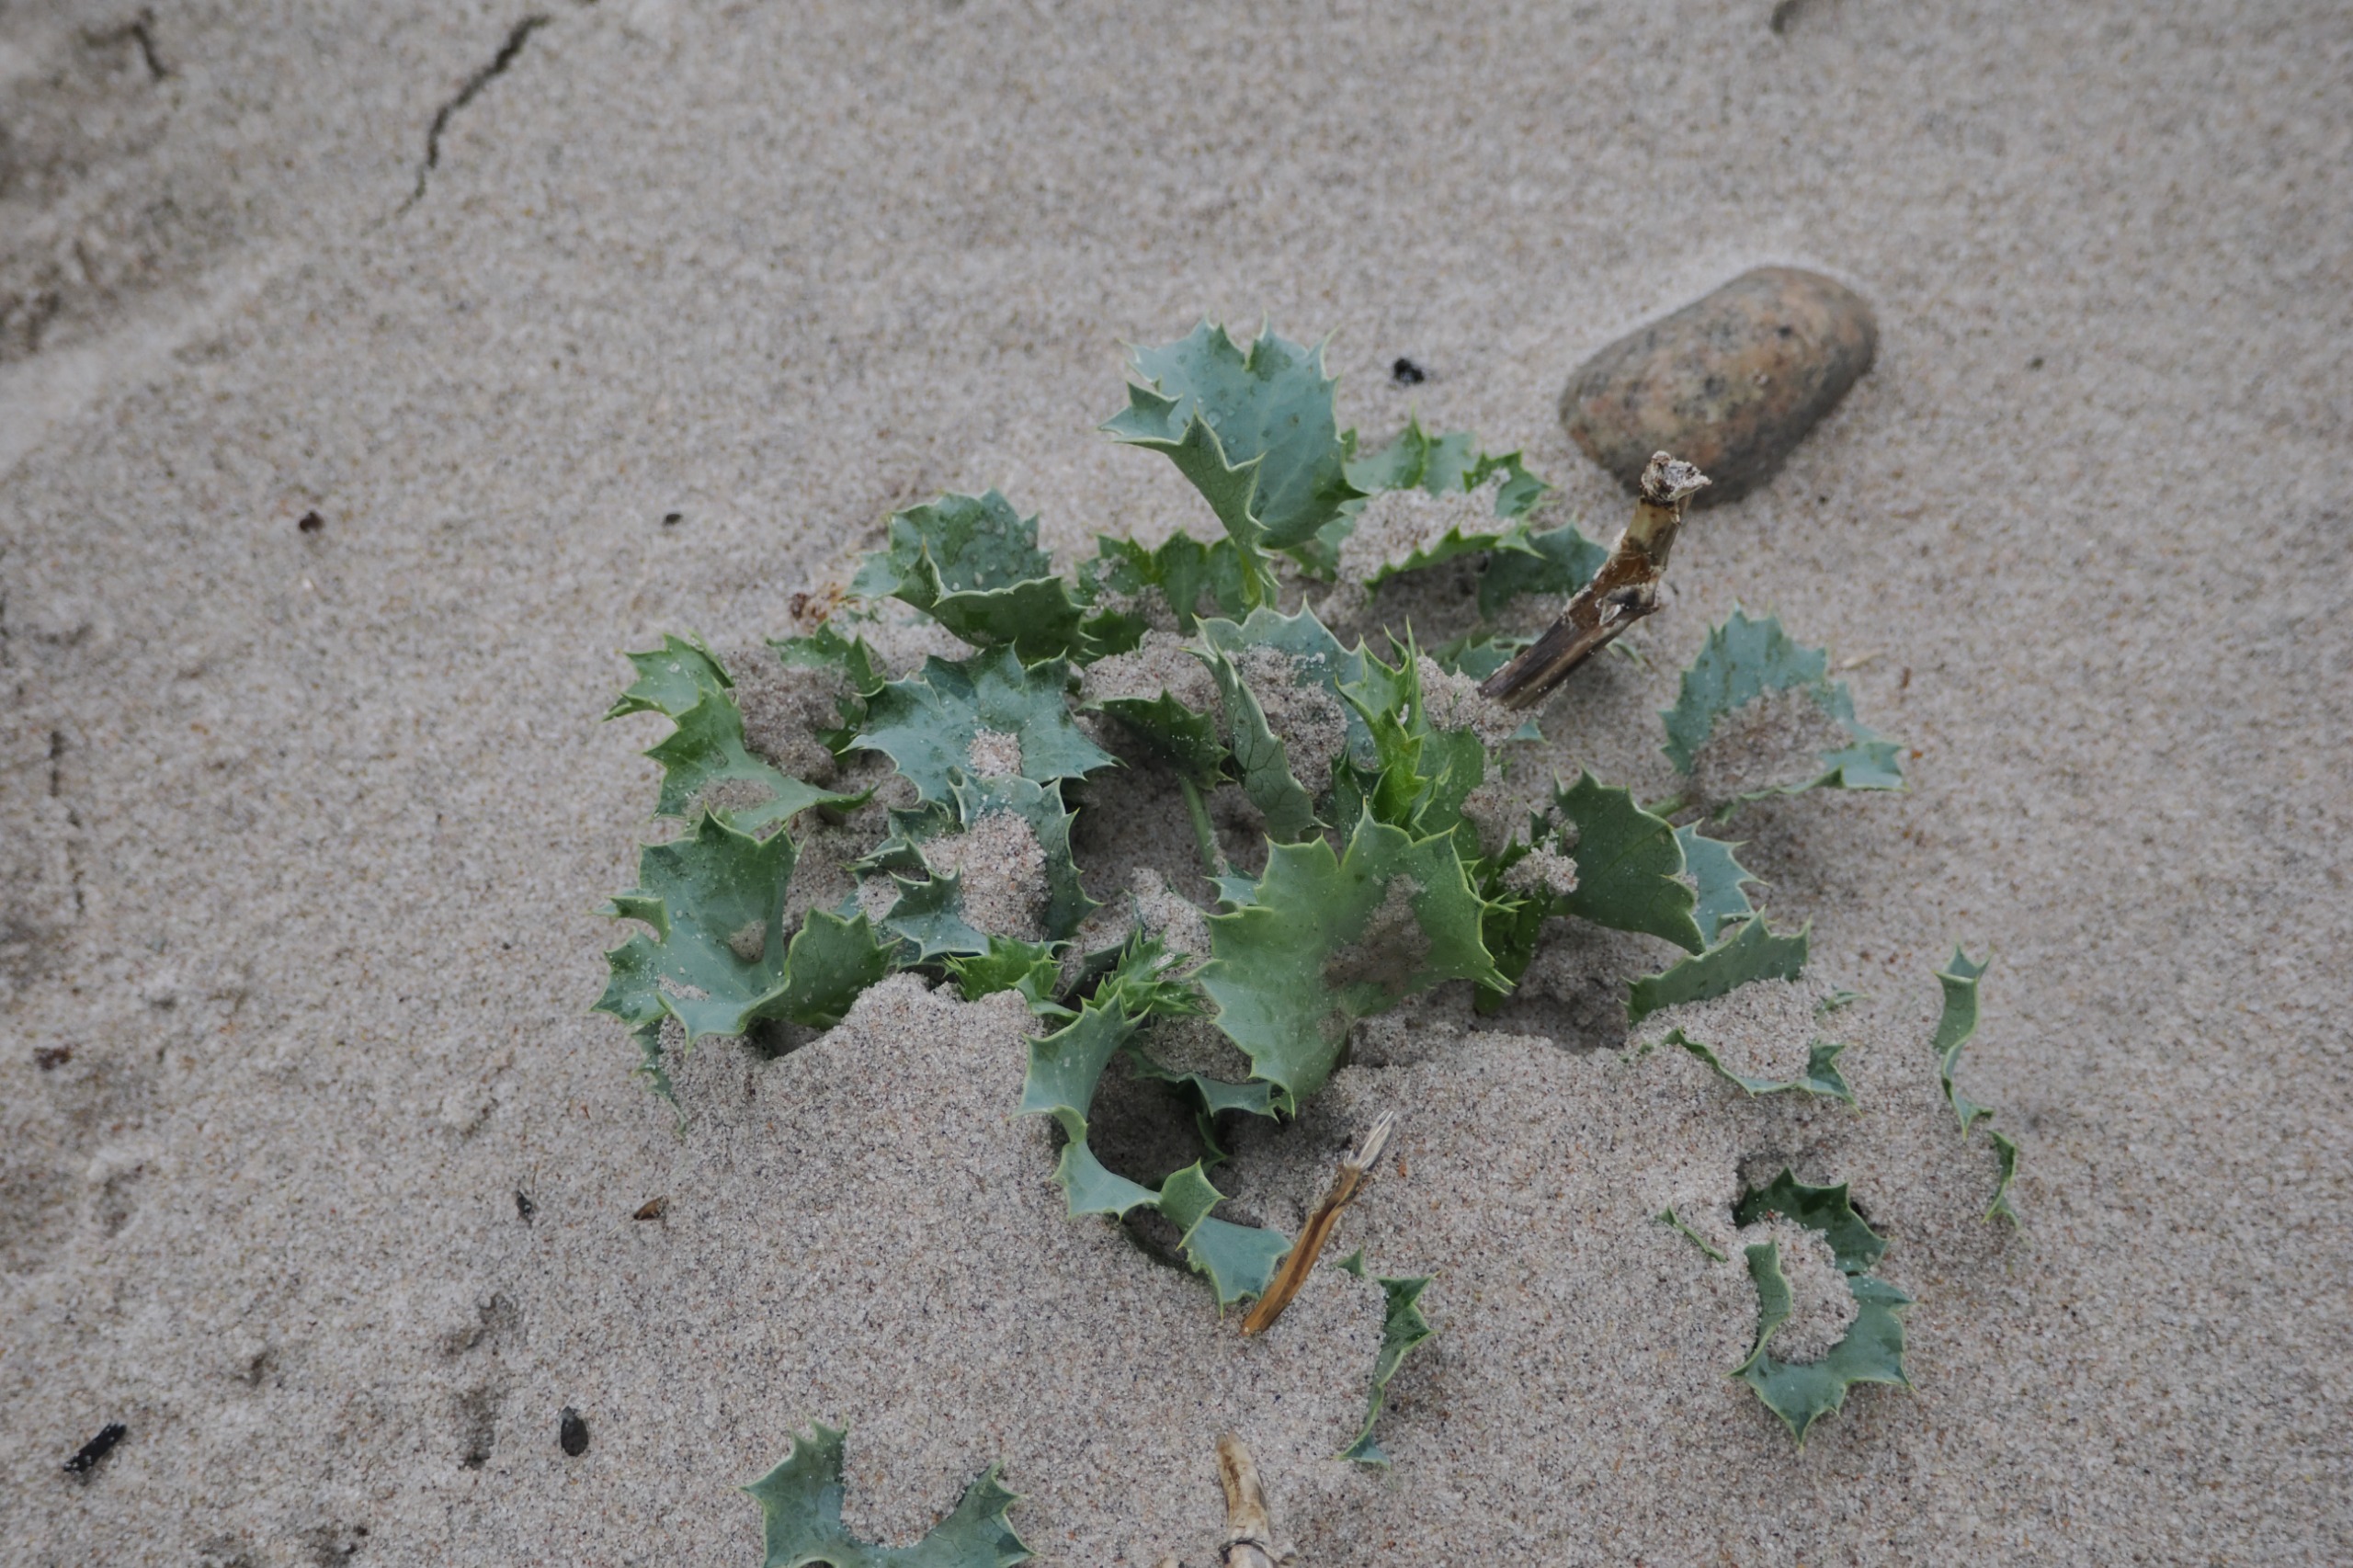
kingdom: Plantae
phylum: Tracheophyta
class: Magnoliopsida
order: Apiales
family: Apiaceae
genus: Eryngium
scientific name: Eryngium maritimum
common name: Strand-mandstro
